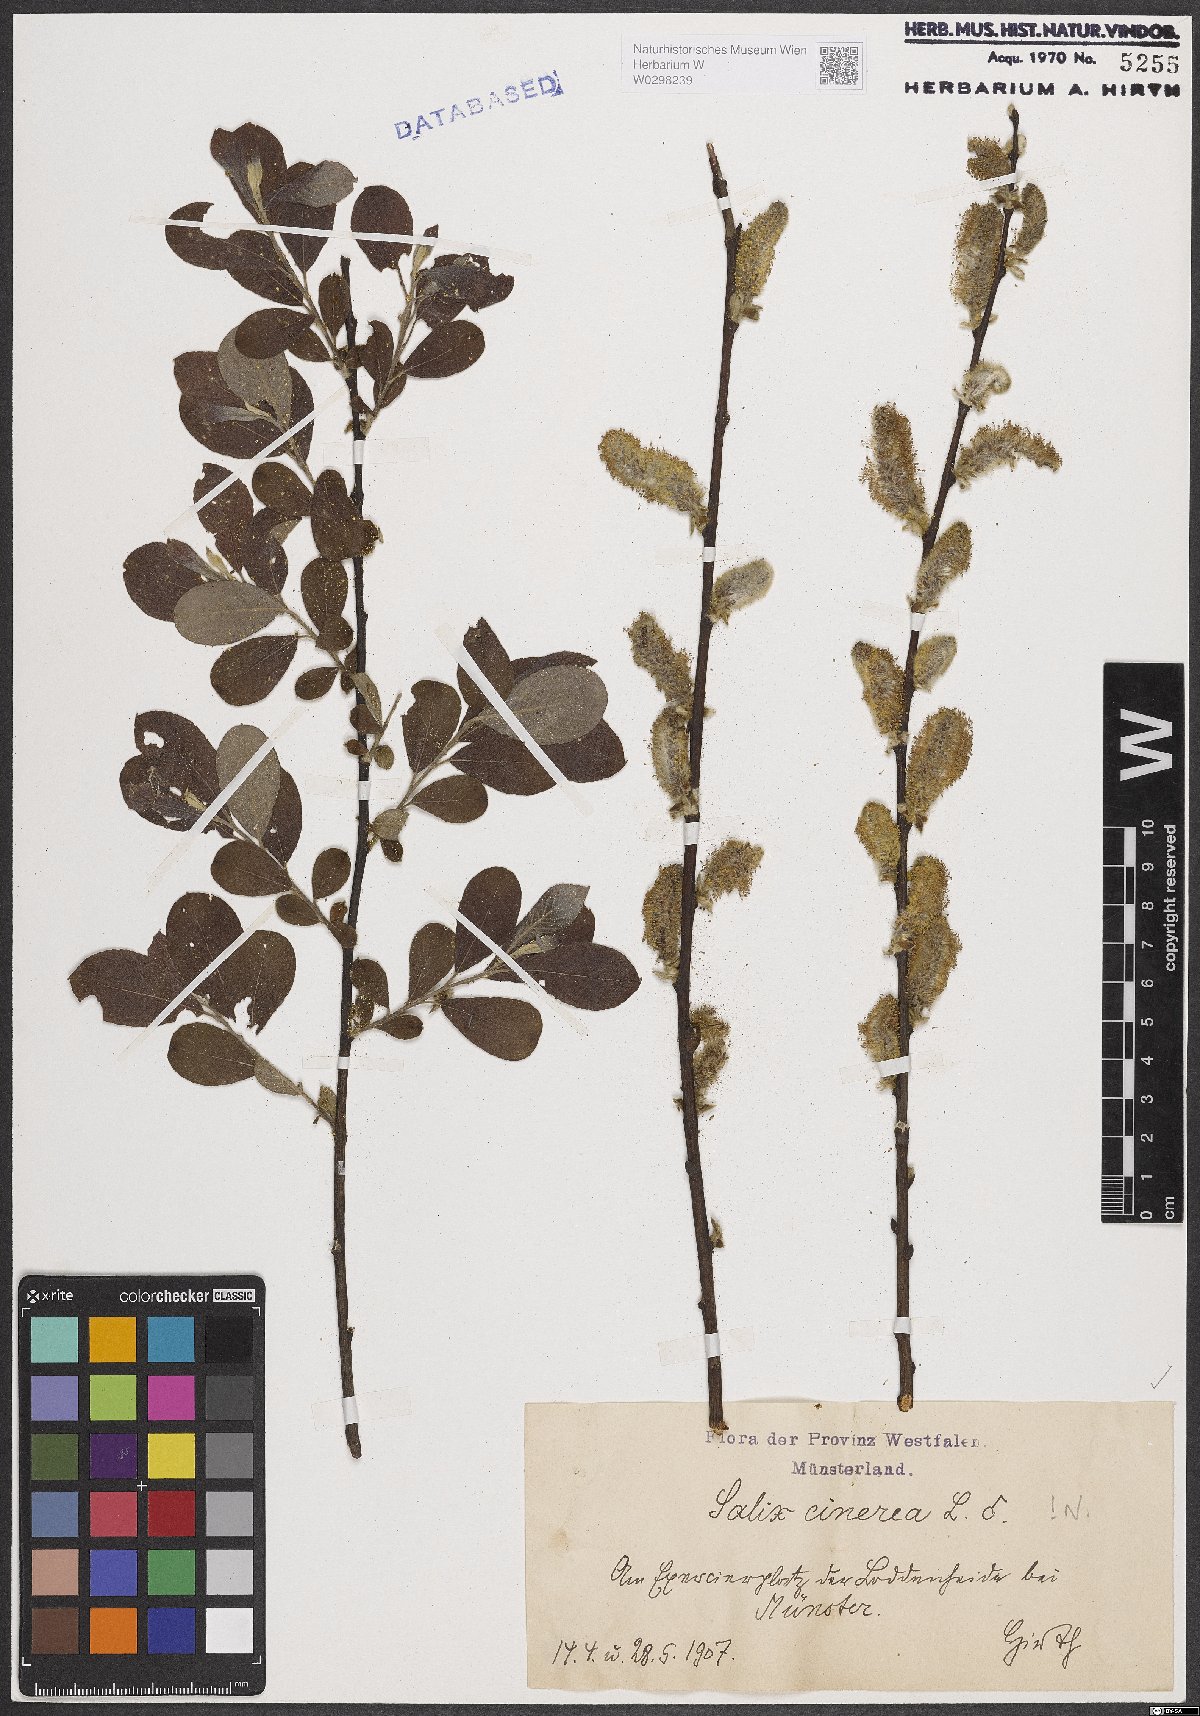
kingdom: Plantae
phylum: Tracheophyta
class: Magnoliopsida
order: Malpighiales
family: Salicaceae
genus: Salix
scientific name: Salix cinerea
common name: Common sallow
